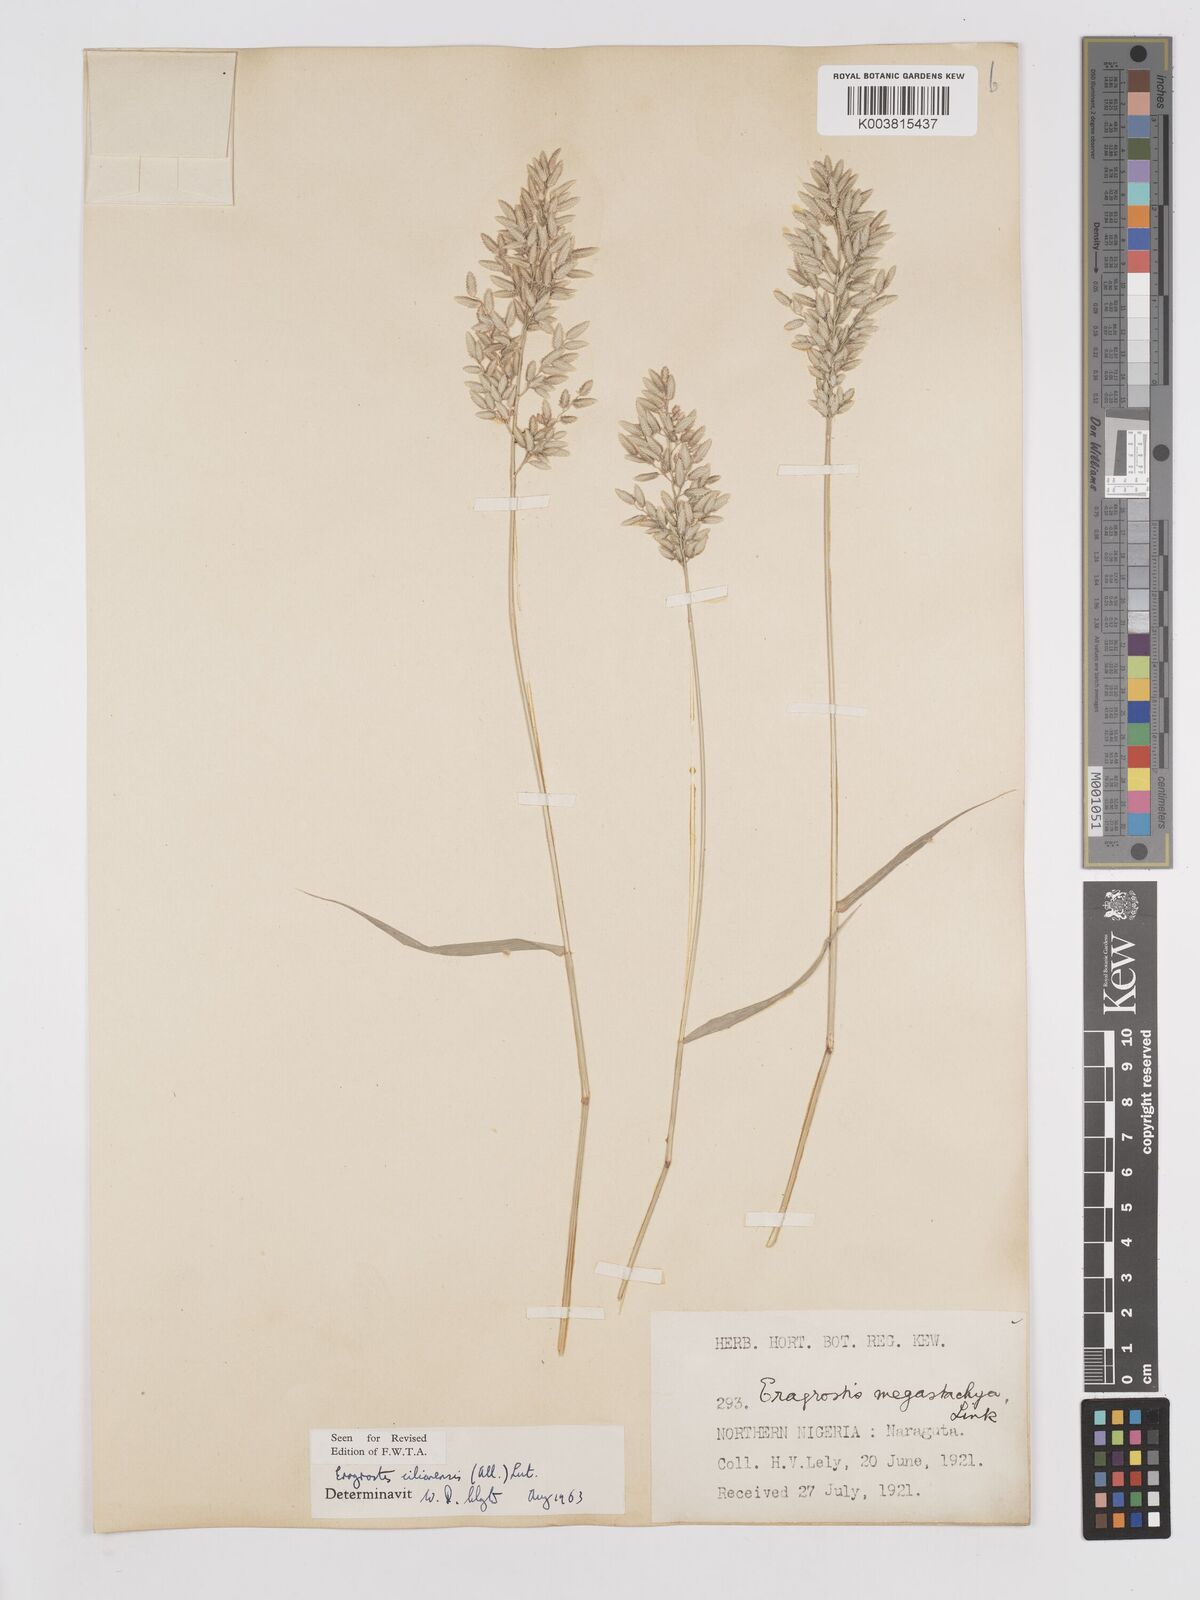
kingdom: Plantae
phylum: Tracheophyta
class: Liliopsida
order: Poales
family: Poaceae
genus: Eragrostis
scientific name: Eragrostis cilianensis
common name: Stinkgrass
